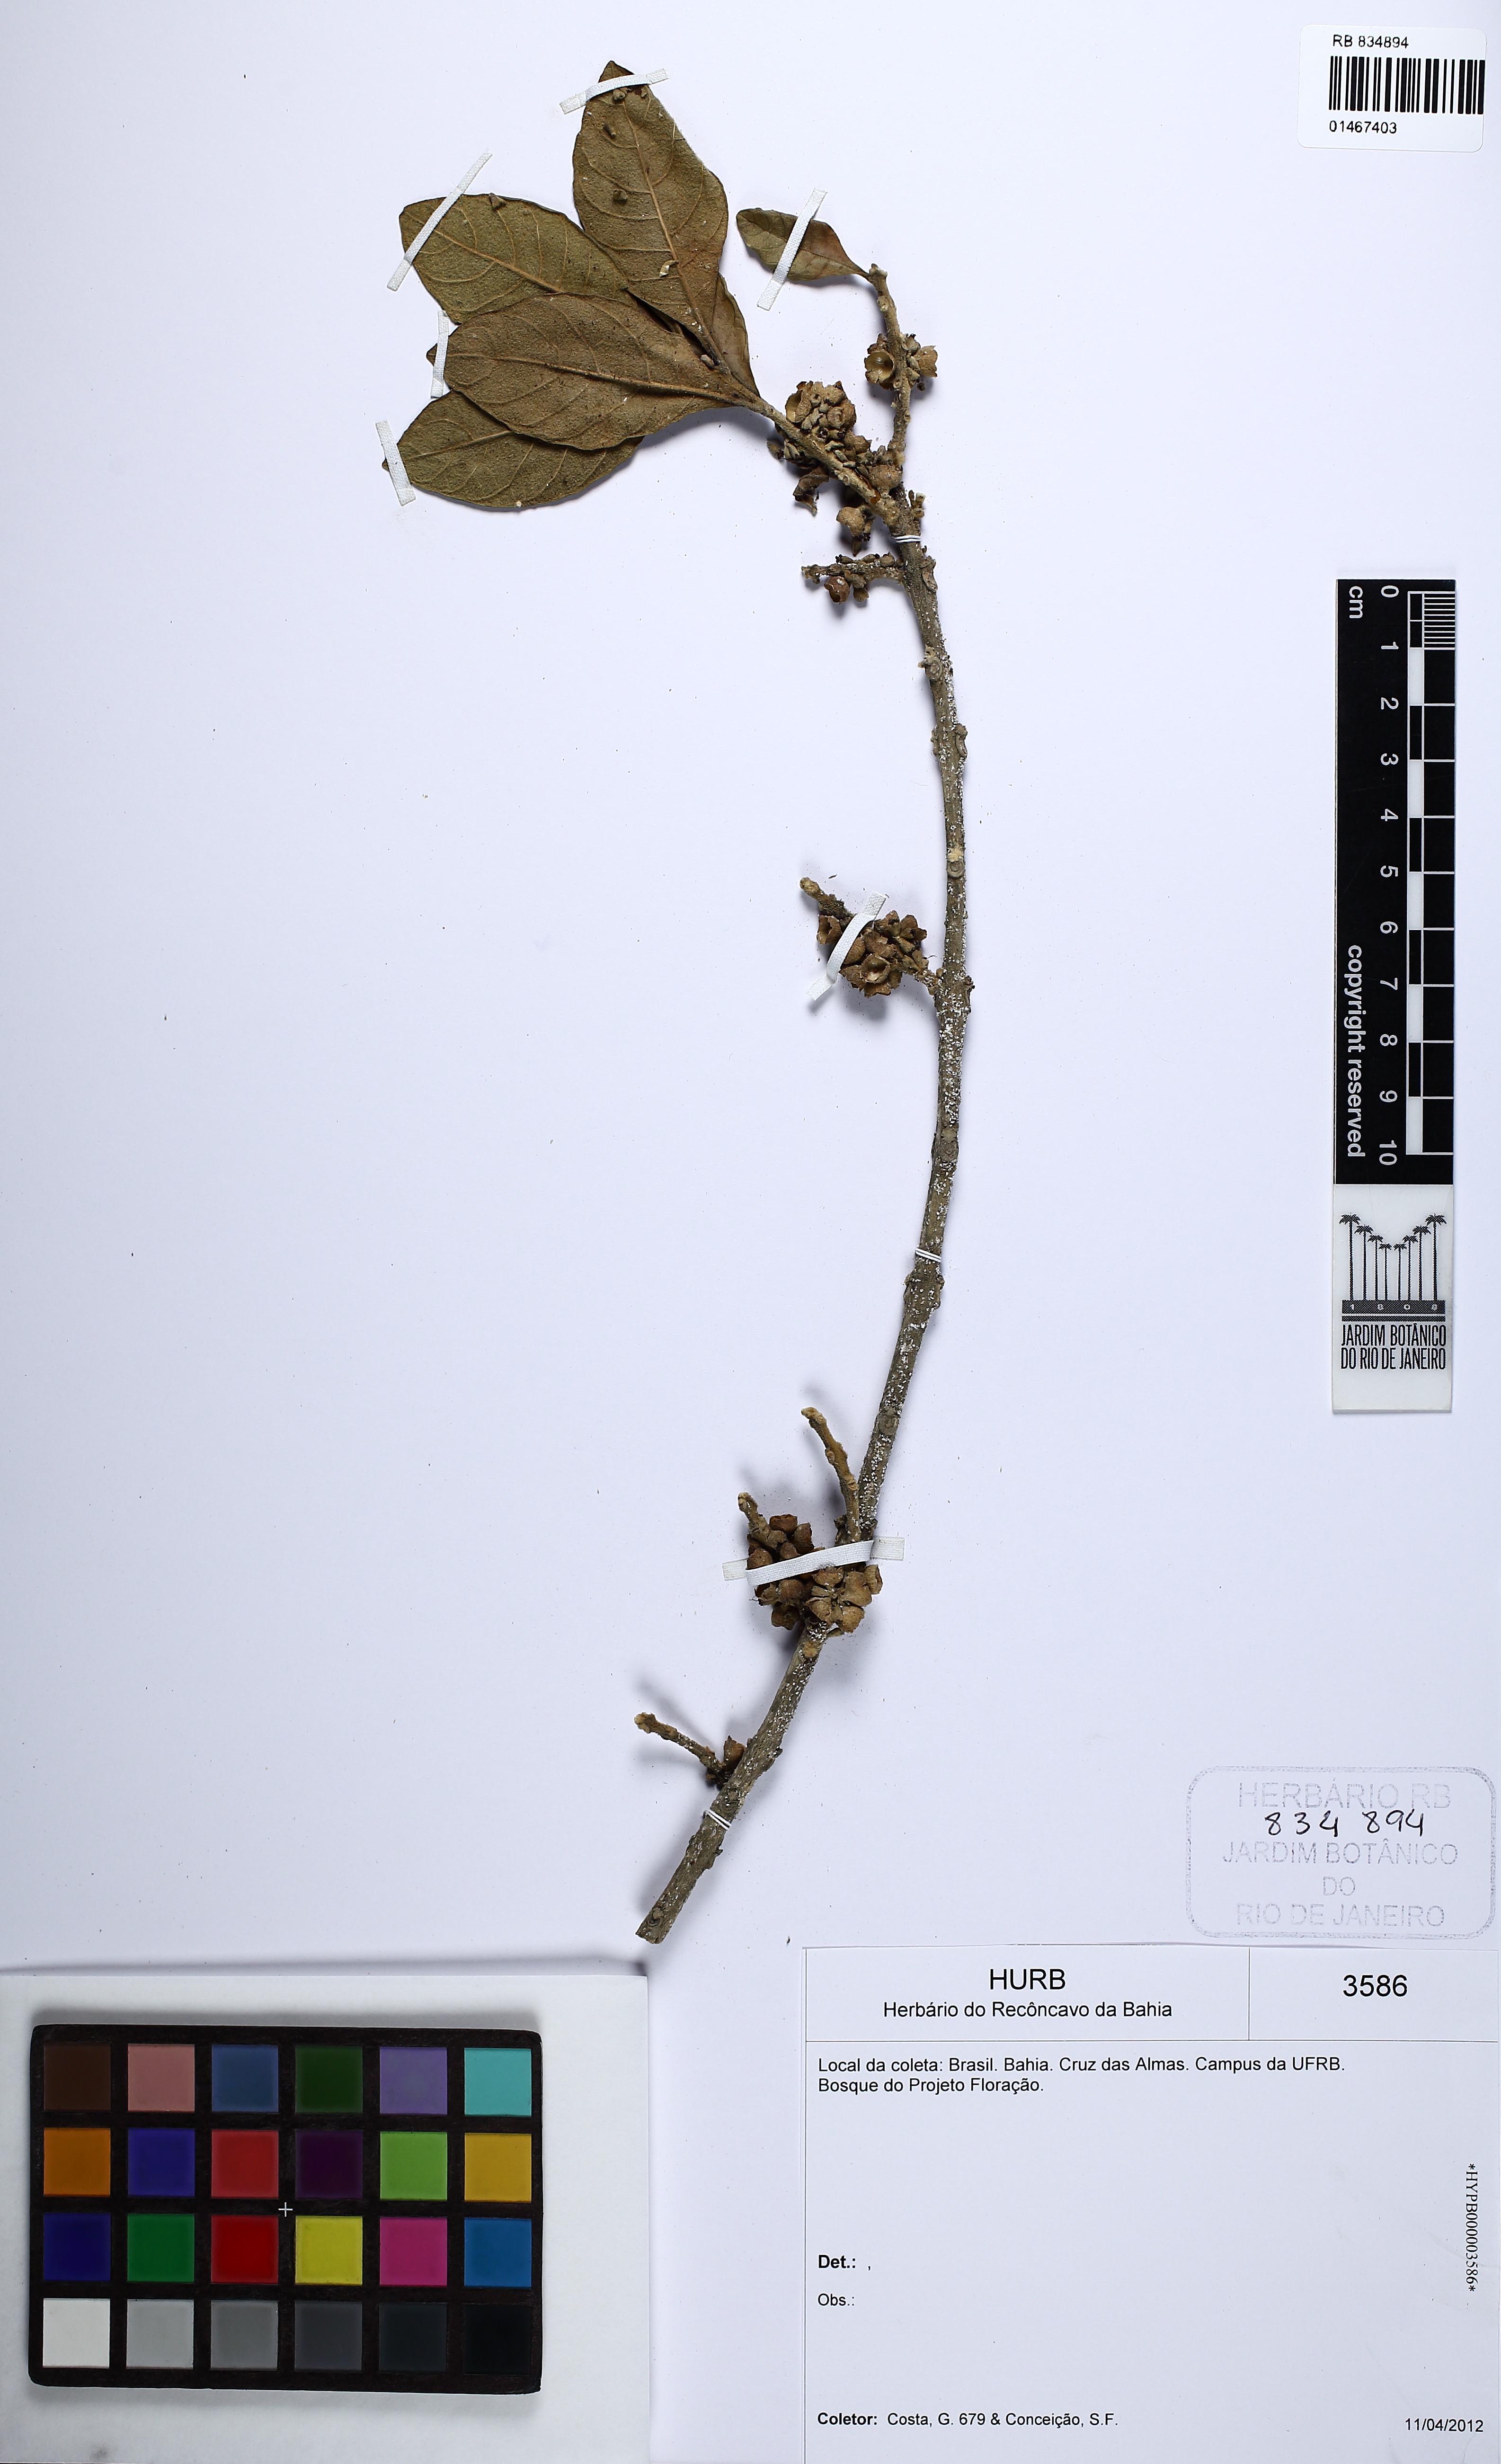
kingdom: Plantae
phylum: Tracheophyta
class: Magnoliopsida
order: Lamiales
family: Lamiaceae
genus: Aegiphila
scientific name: Aegiphila integrifolia
